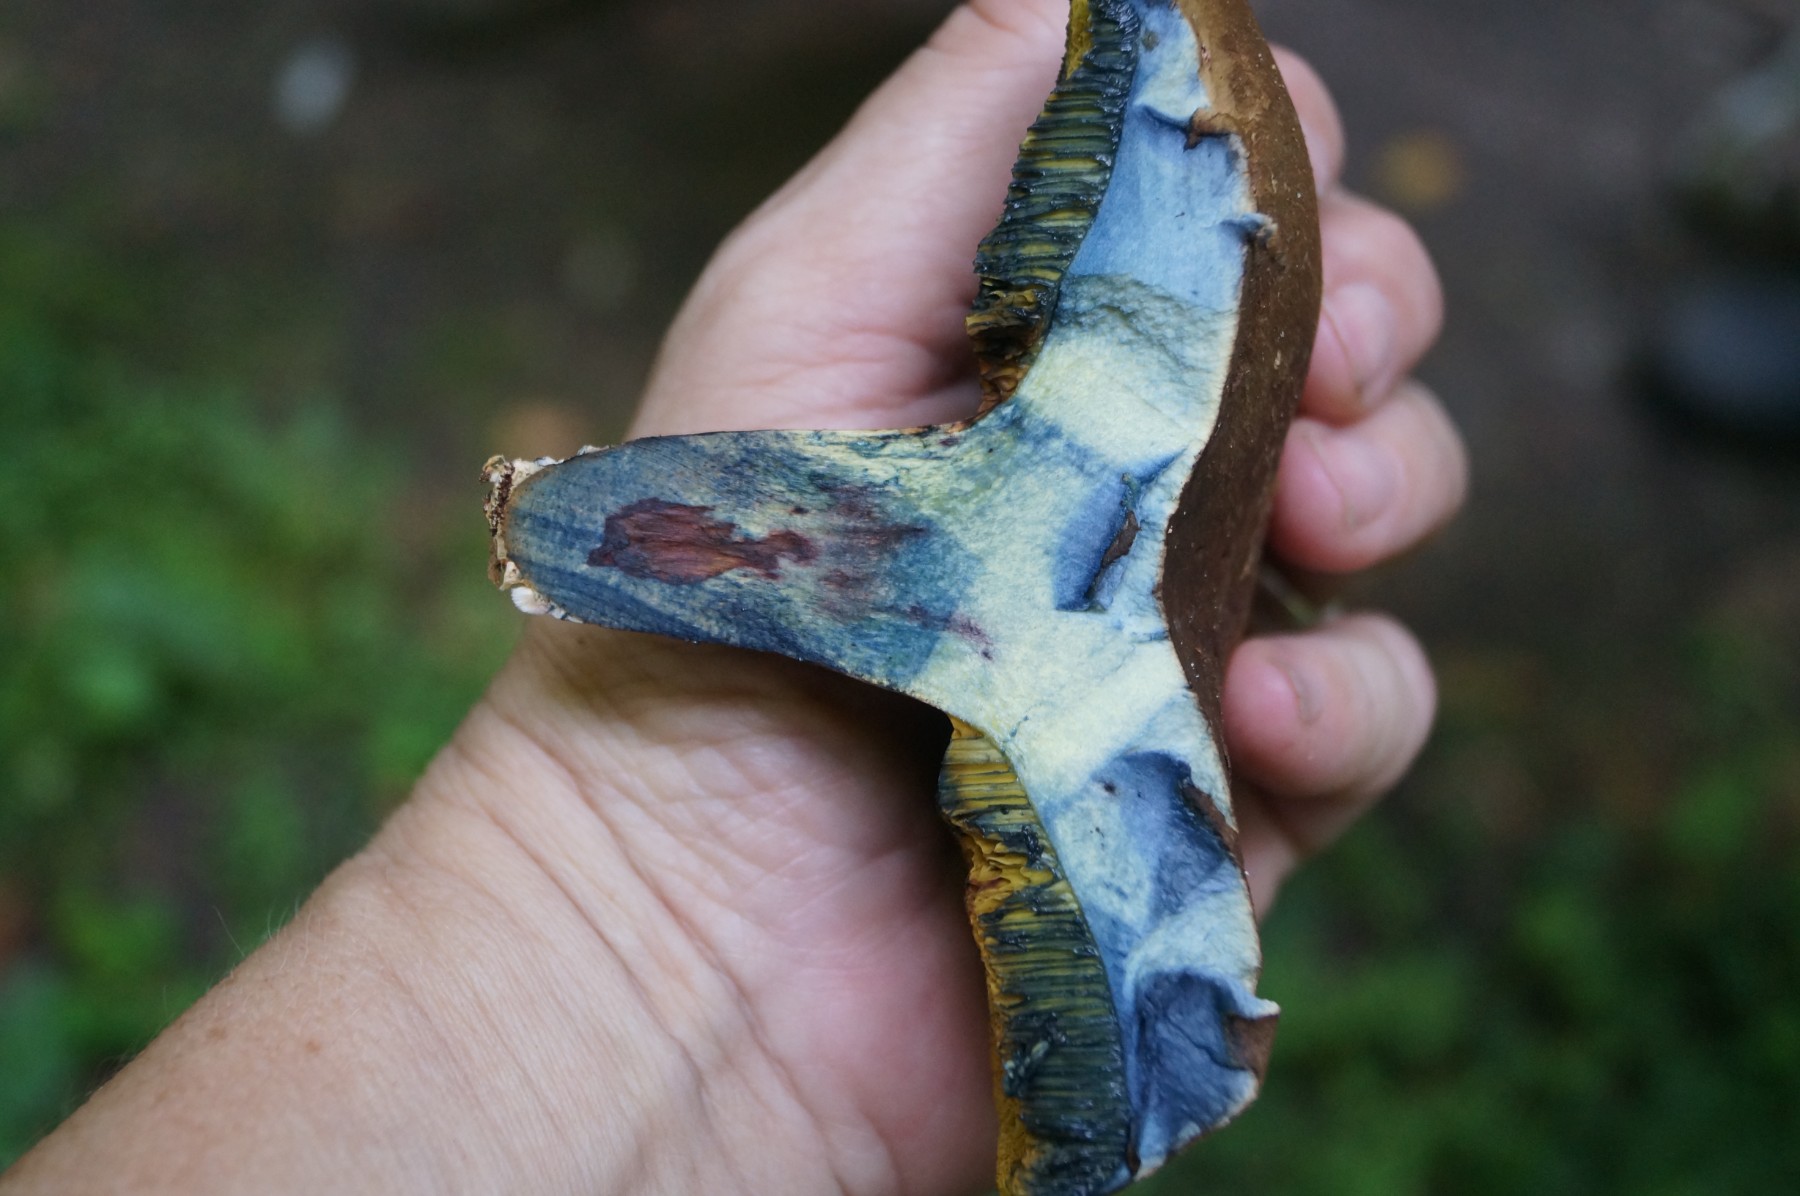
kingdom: Fungi
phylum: Basidiomycota
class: Agaricomycetes
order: Boletales
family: Boletaceae
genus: Cyanoboletus
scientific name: Cyanoboletus pulverulentus
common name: sortblånende rørhat
